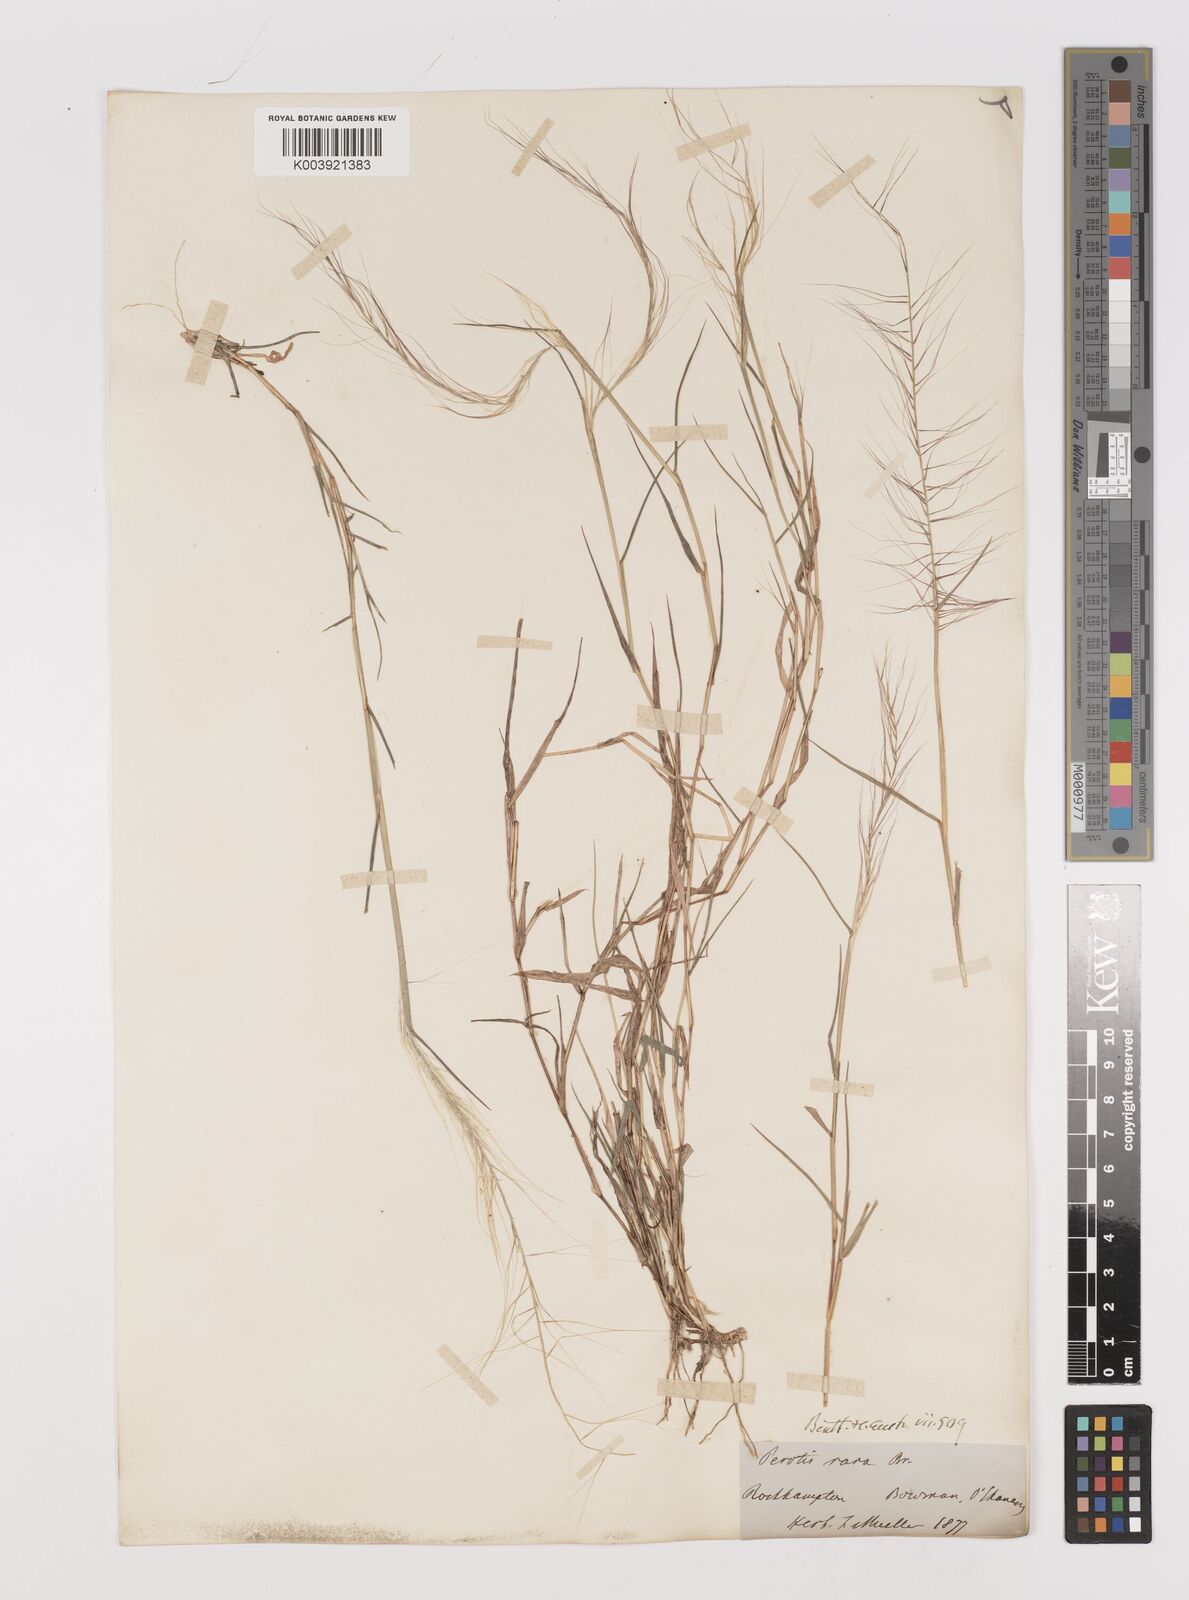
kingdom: Plantae
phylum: Tracheophyta
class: Liliopsida
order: Poales
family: Poaceae
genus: Perotis
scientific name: Perotis rara
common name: Comet grass
